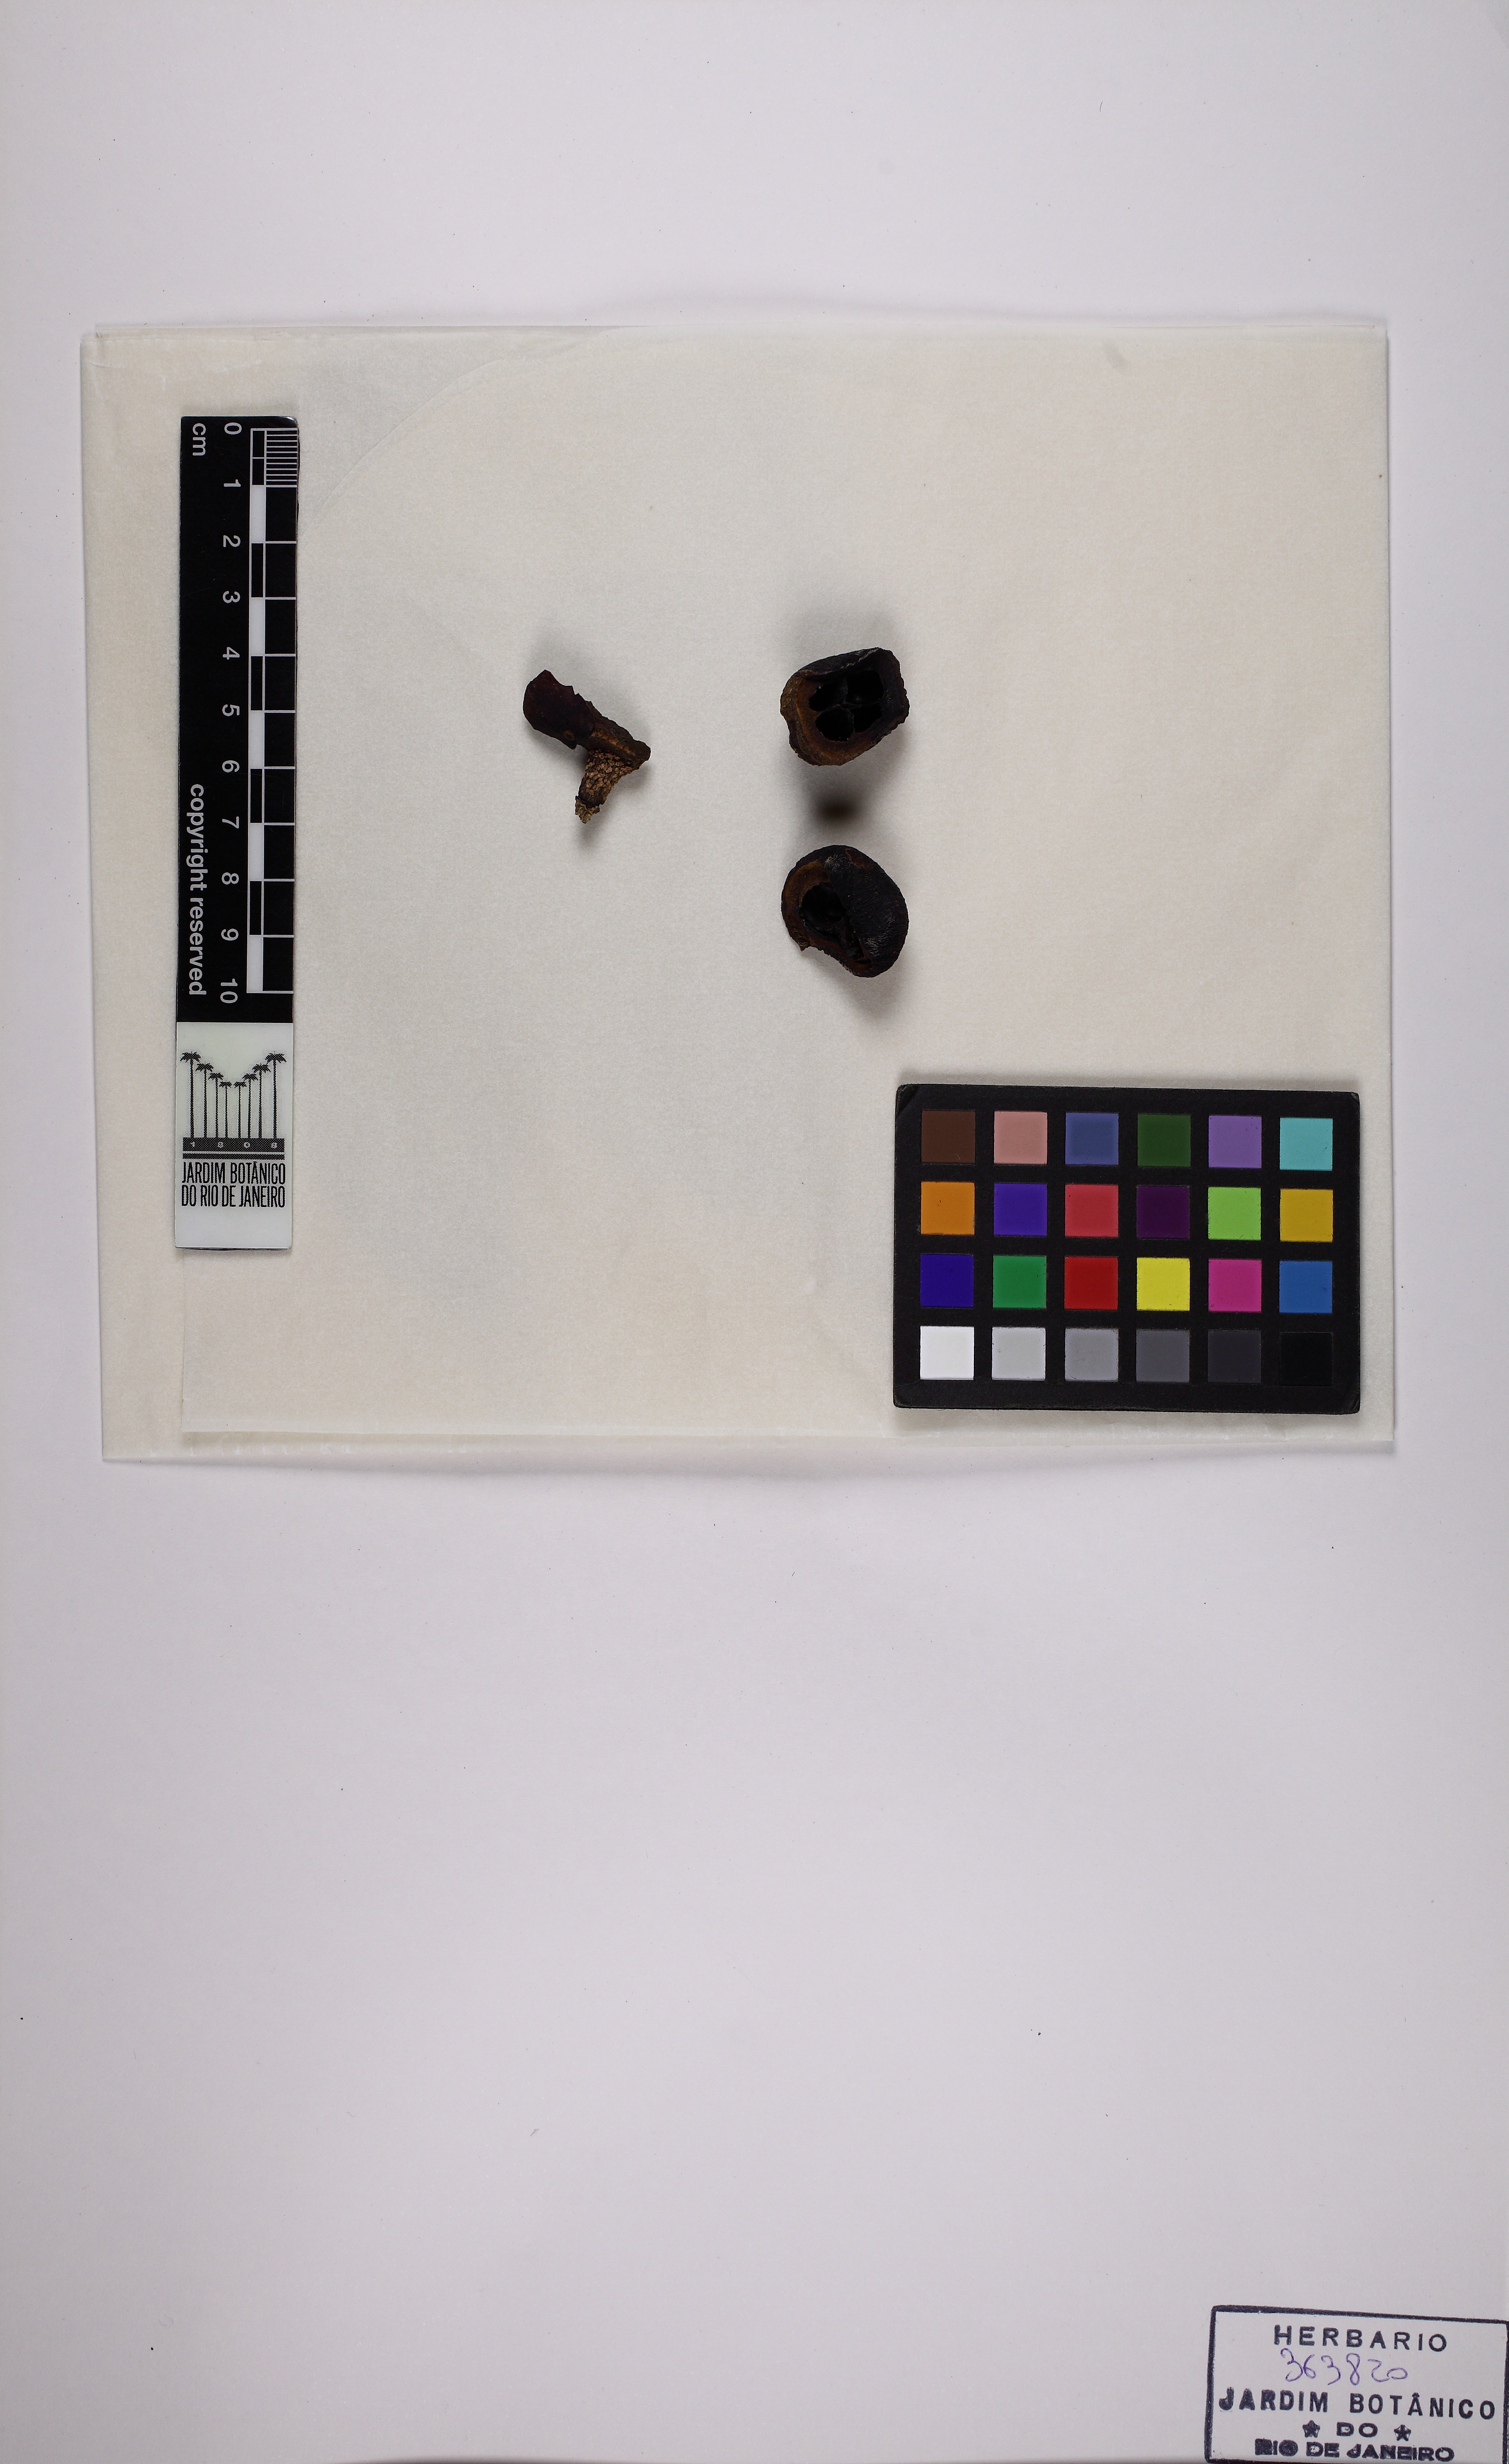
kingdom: Plantae
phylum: Tracheophyta
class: Magnoliopsida
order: Ericales
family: Lecythidaceae
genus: Eschweilera
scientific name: Eschweilera grandiflora
